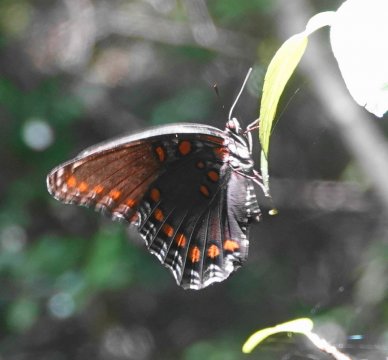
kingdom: Animalia
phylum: Arthropoda
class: Insecta
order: Lepidoptera
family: Nymphalidae
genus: Limenitis
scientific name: Limenitis arthemis
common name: Red-spotted Admiral
